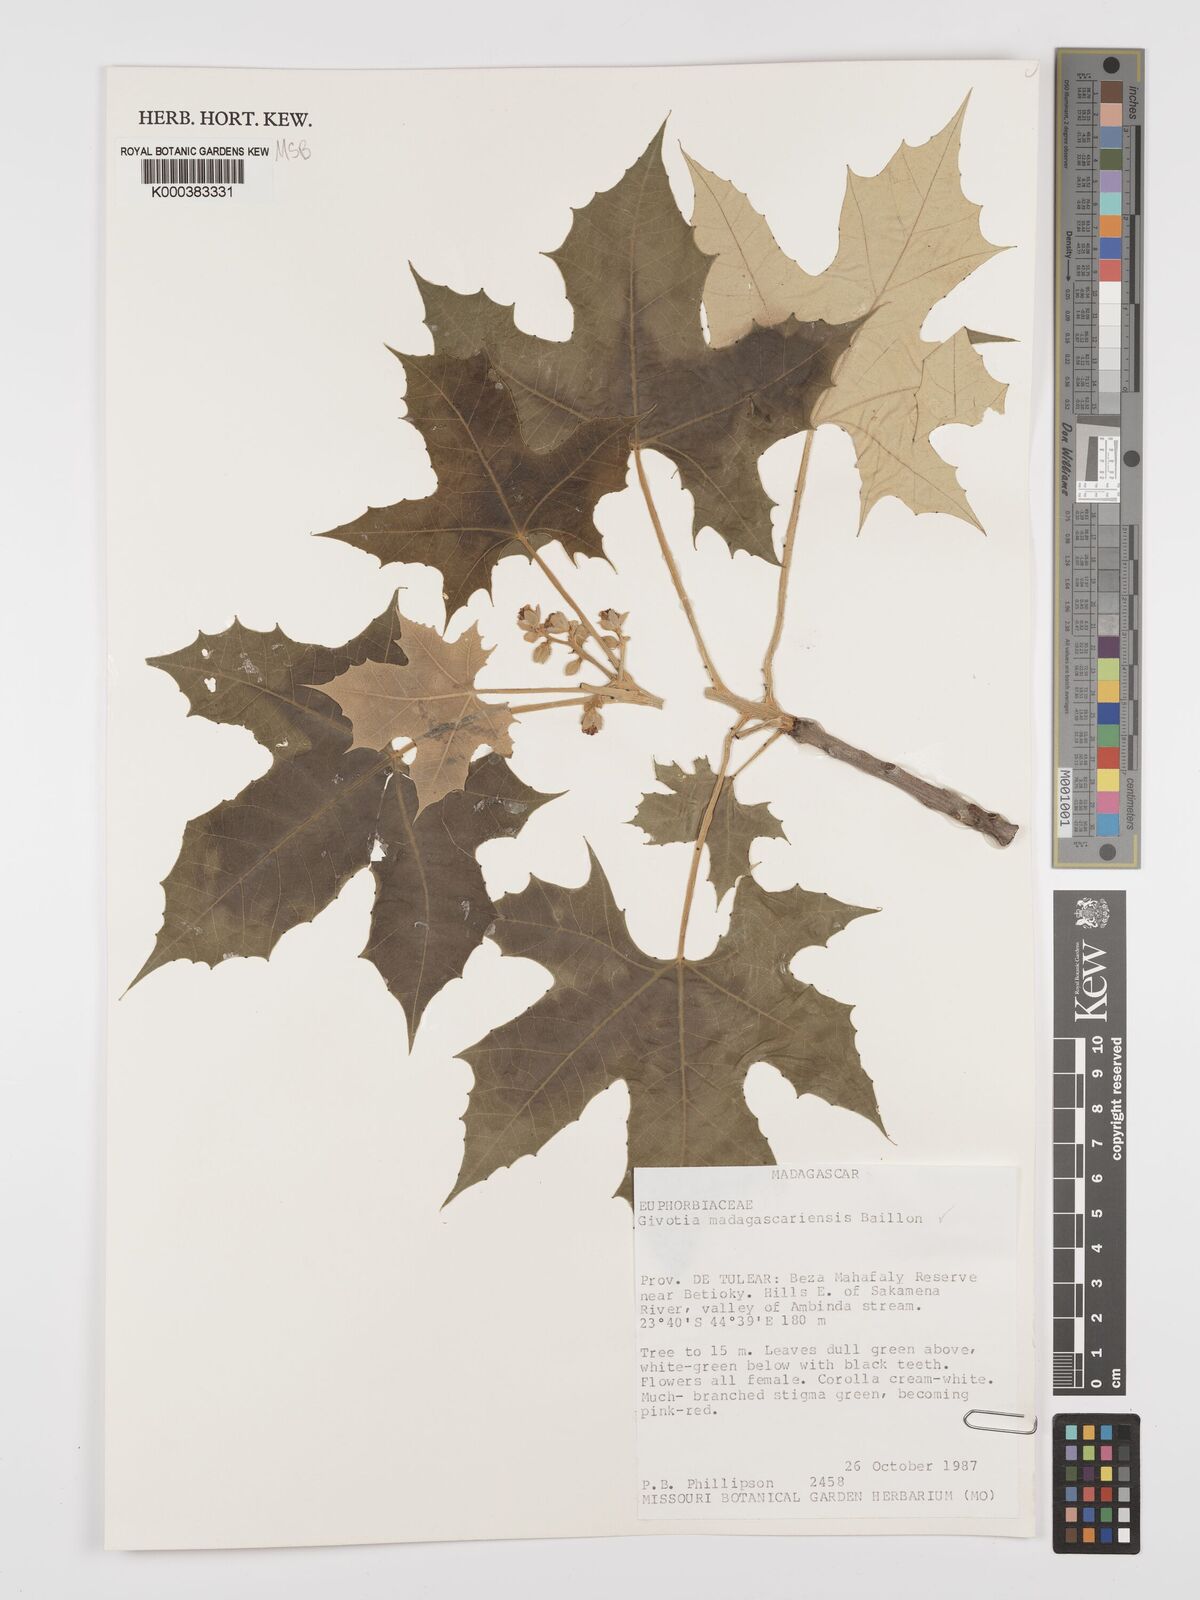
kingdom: Plantae
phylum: Tracheophyta
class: Magnoliopsida
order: Malpighiales
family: Euphorbiaceae
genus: Givotia
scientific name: Givotia madagascariensis
